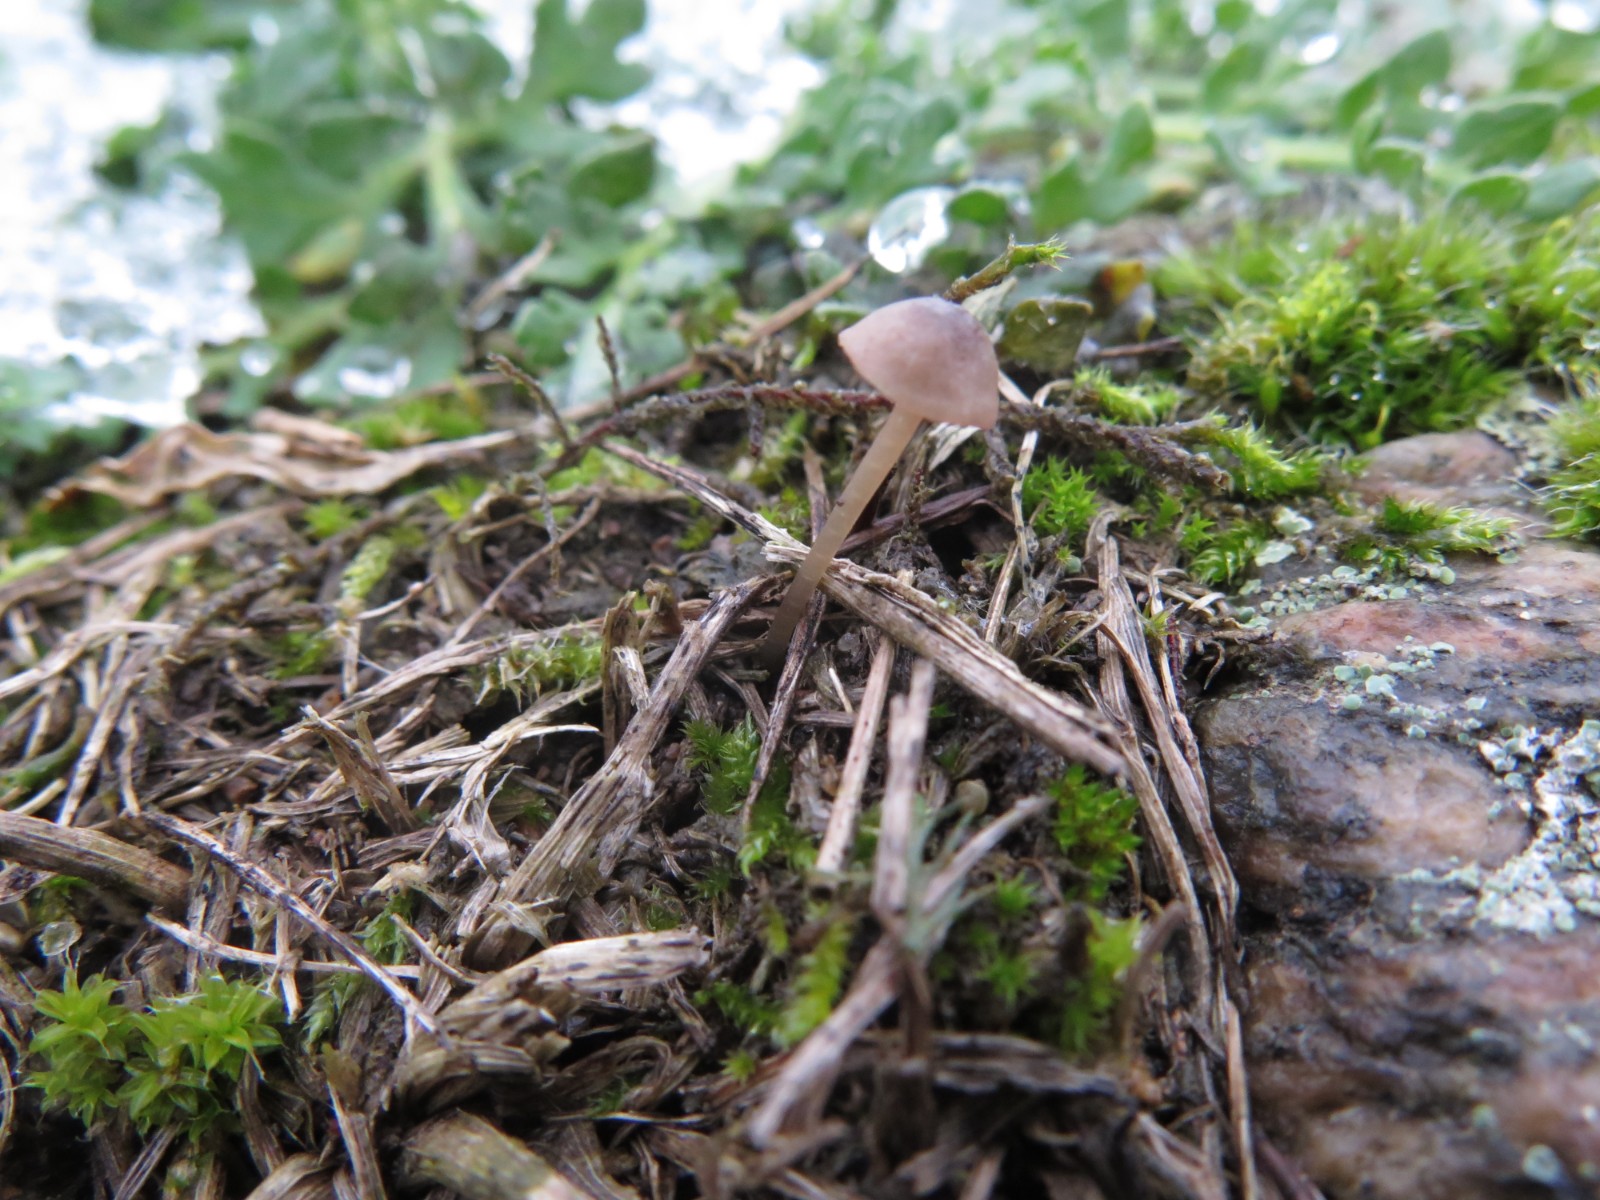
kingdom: Fungi
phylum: Basidiomycota
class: Agaricomycetes
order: Agaricales
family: Mycenaceae
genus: Mycena
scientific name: Mycena
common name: huesvamp
